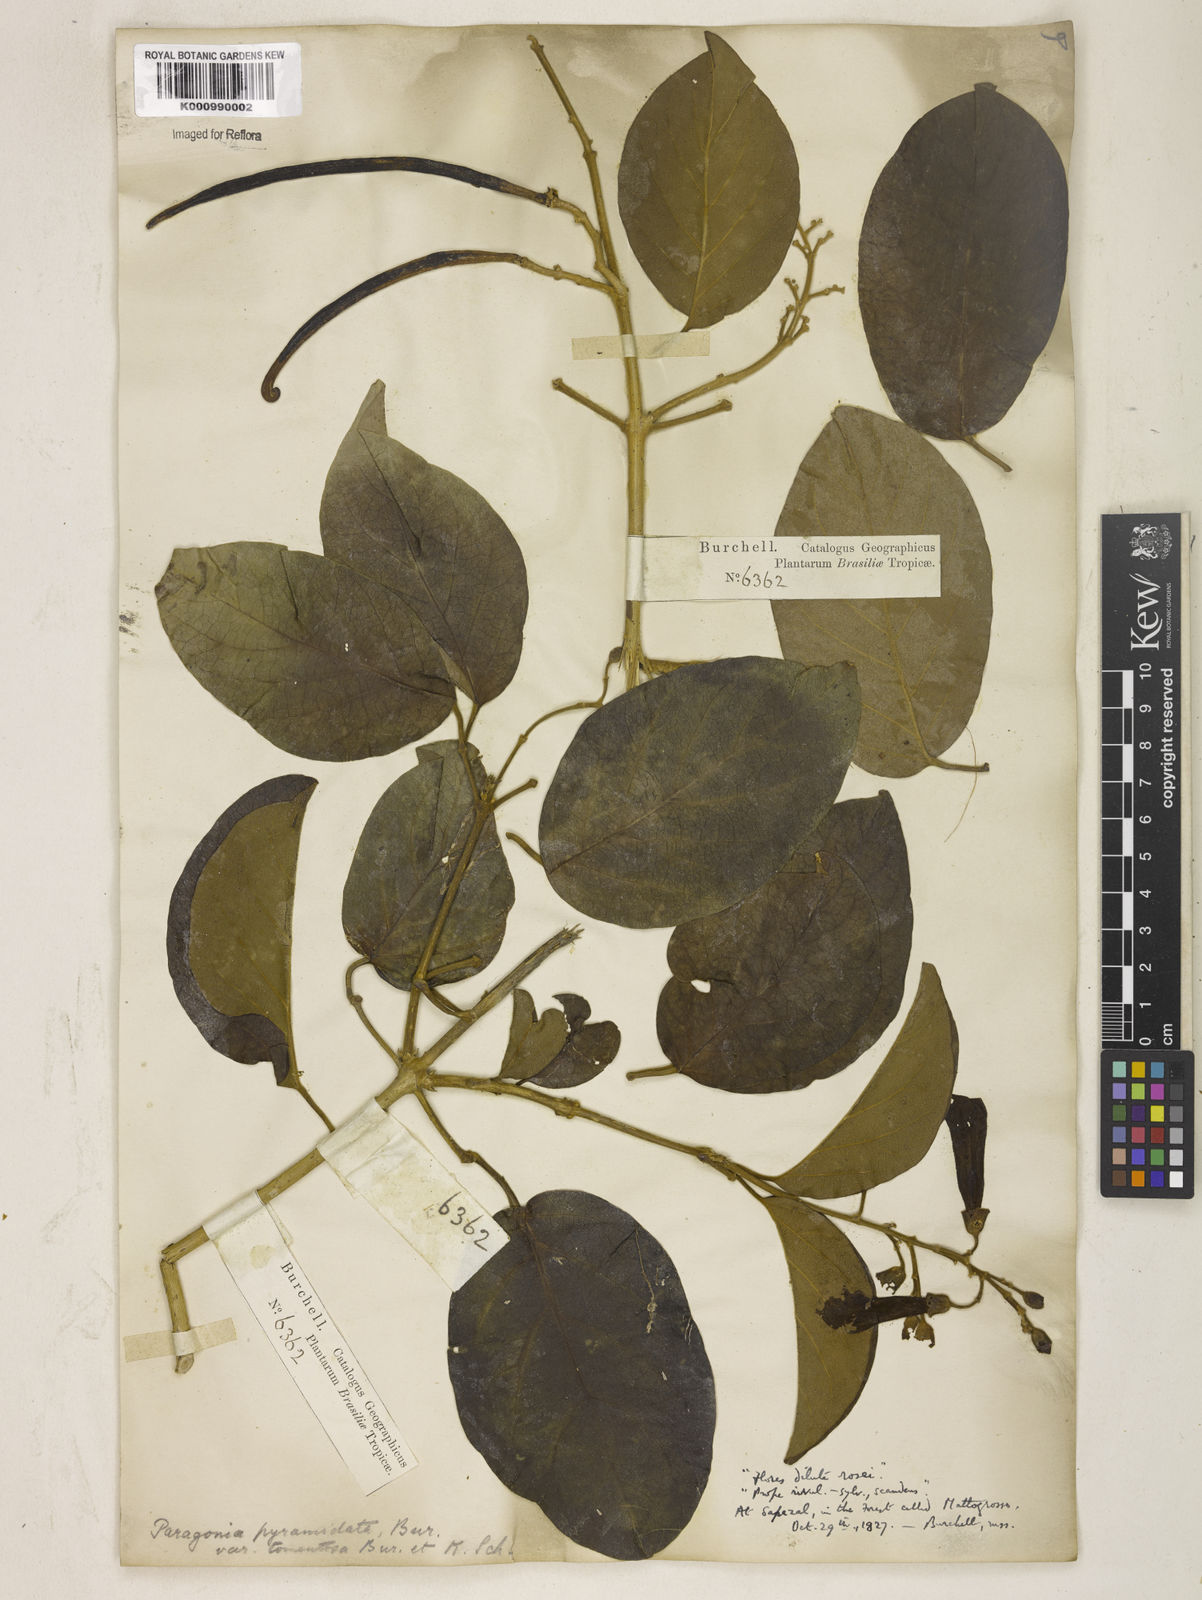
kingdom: Plantae
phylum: Tracheophyta
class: Magnoliopsida
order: Lamiales
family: Bignoniaceae
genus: Tanaecium
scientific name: Tanaecium pyramidatum
